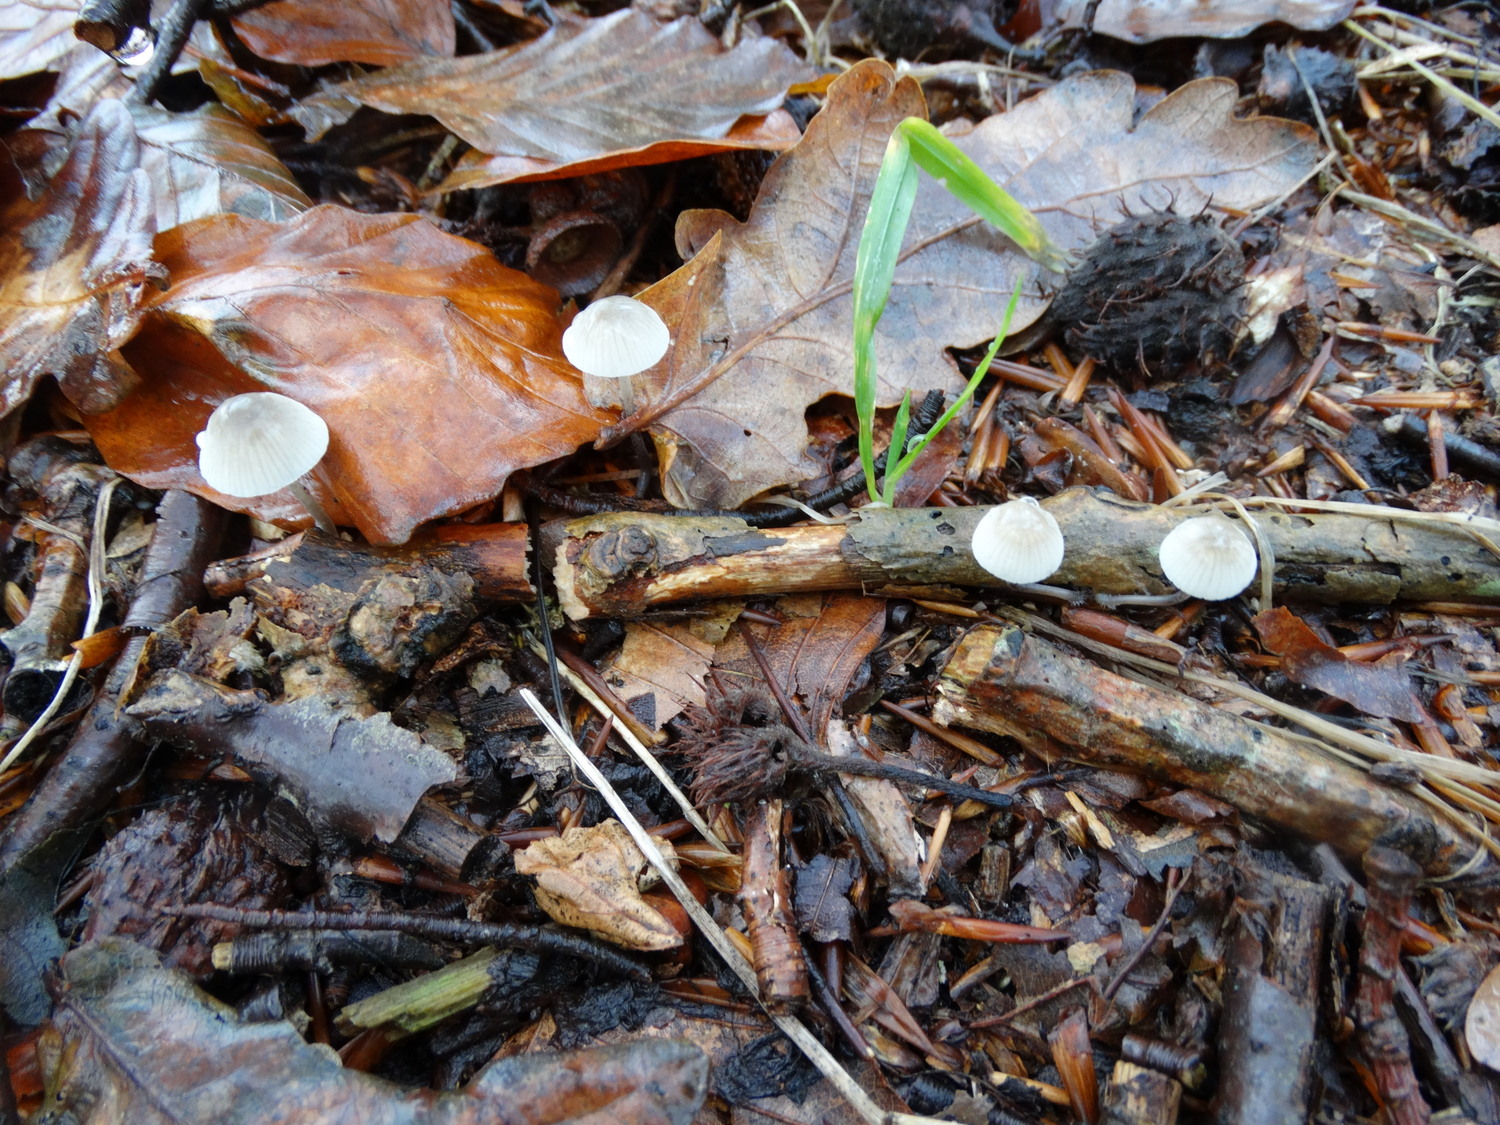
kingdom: Fungi
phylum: Basidiomycota
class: Agaricomycetes
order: Agaricales
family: Mycenaceae
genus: Mycena
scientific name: Mycena vitilis
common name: blankstokket huesvamp
